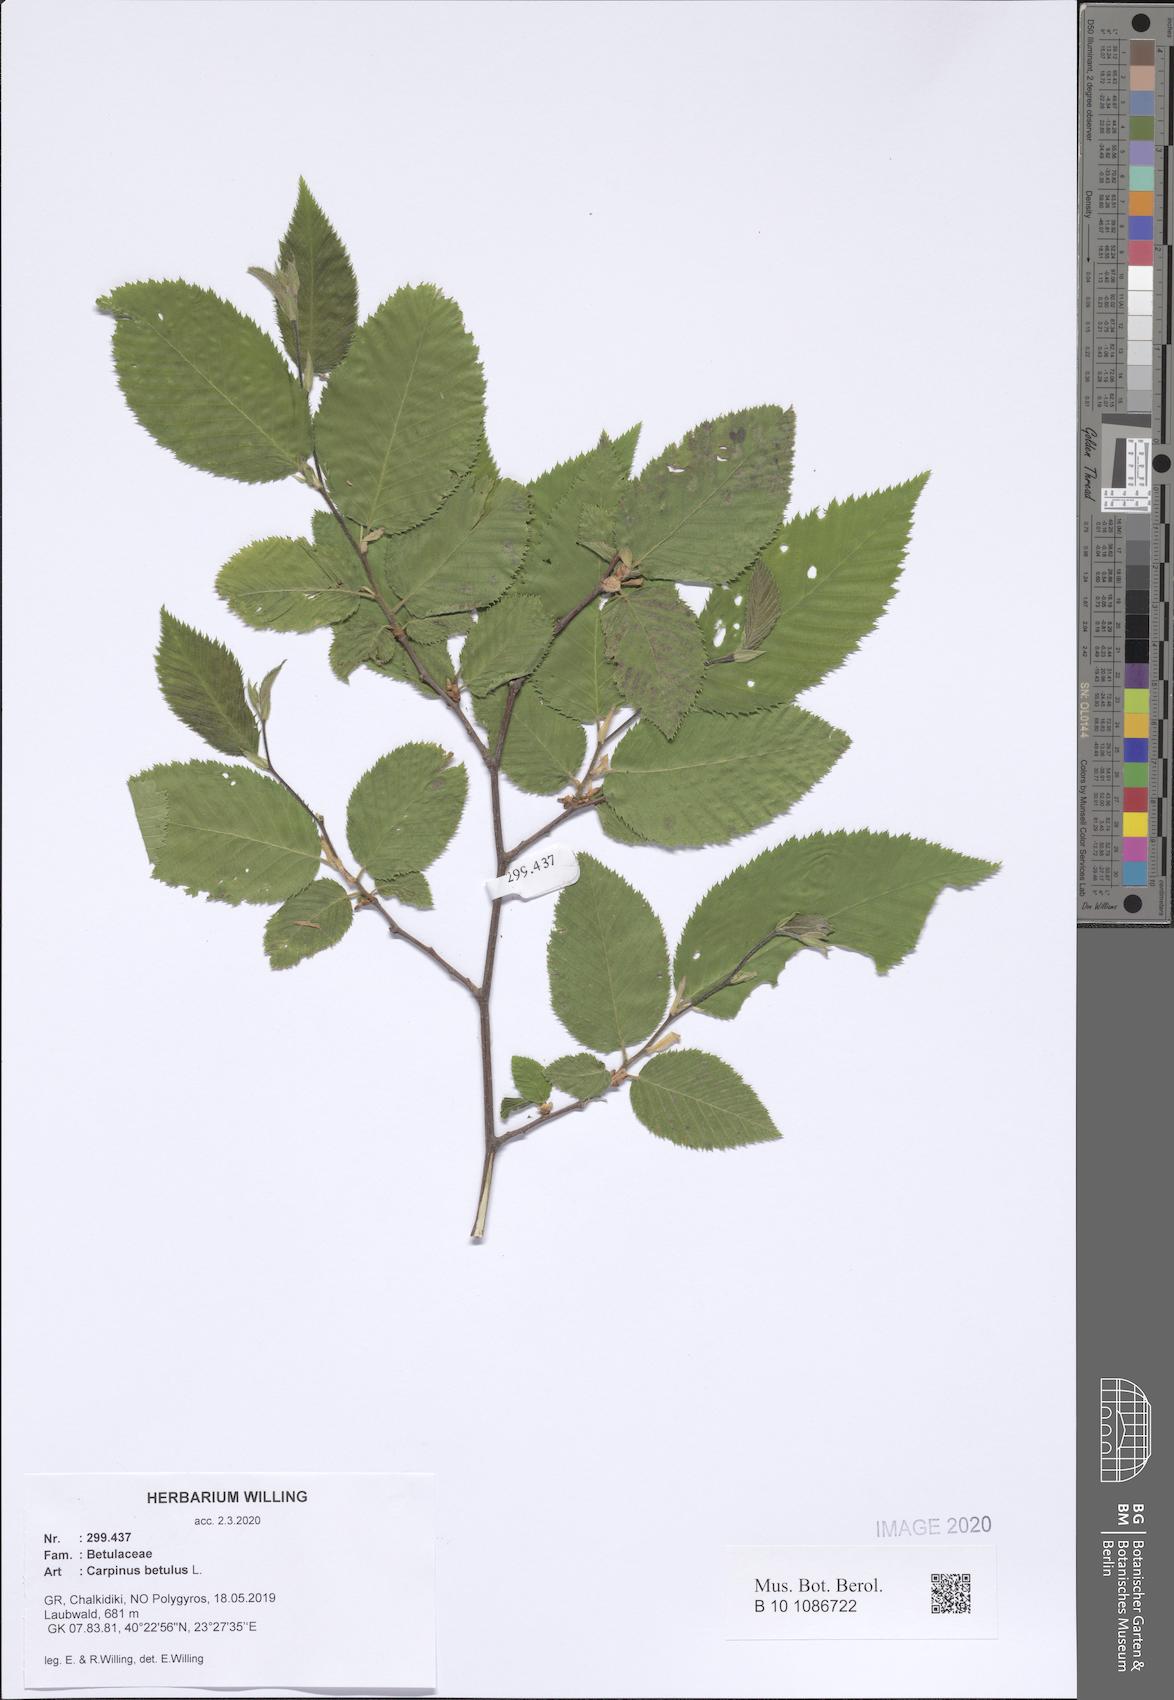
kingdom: Plantae
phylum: Tracheophyta
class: Magnoliopsida
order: Fagales
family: Betulaceae
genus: Carpinus
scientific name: Carpinus betulus
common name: Hornbeam
